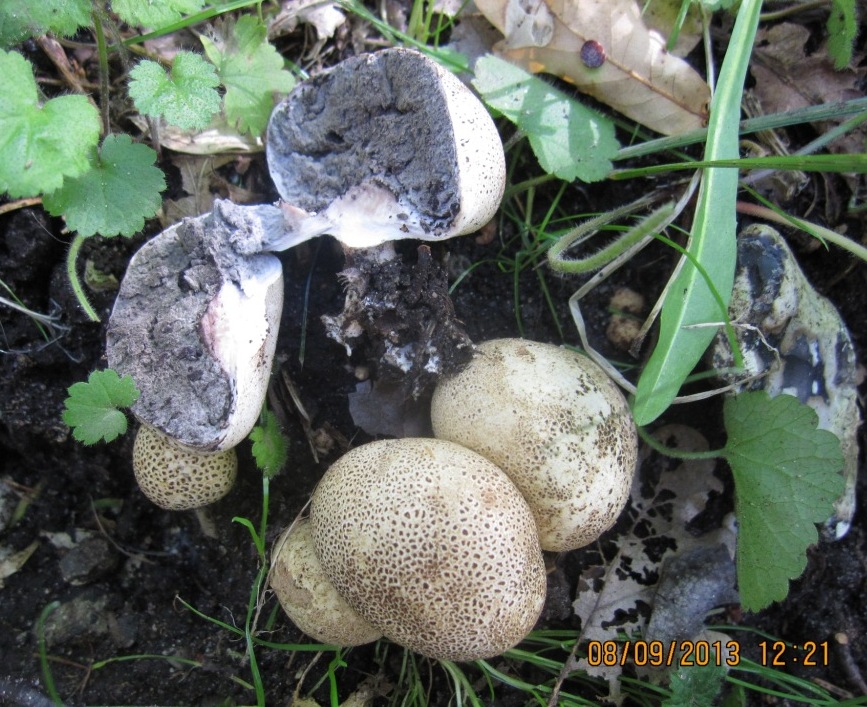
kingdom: Fungi
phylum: Basidiomycota
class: Agaricomycetes
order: Boletales
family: Sclerodermataceae
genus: Scleroderma
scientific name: Scleroderma areolatum
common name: plettet bruskbold
